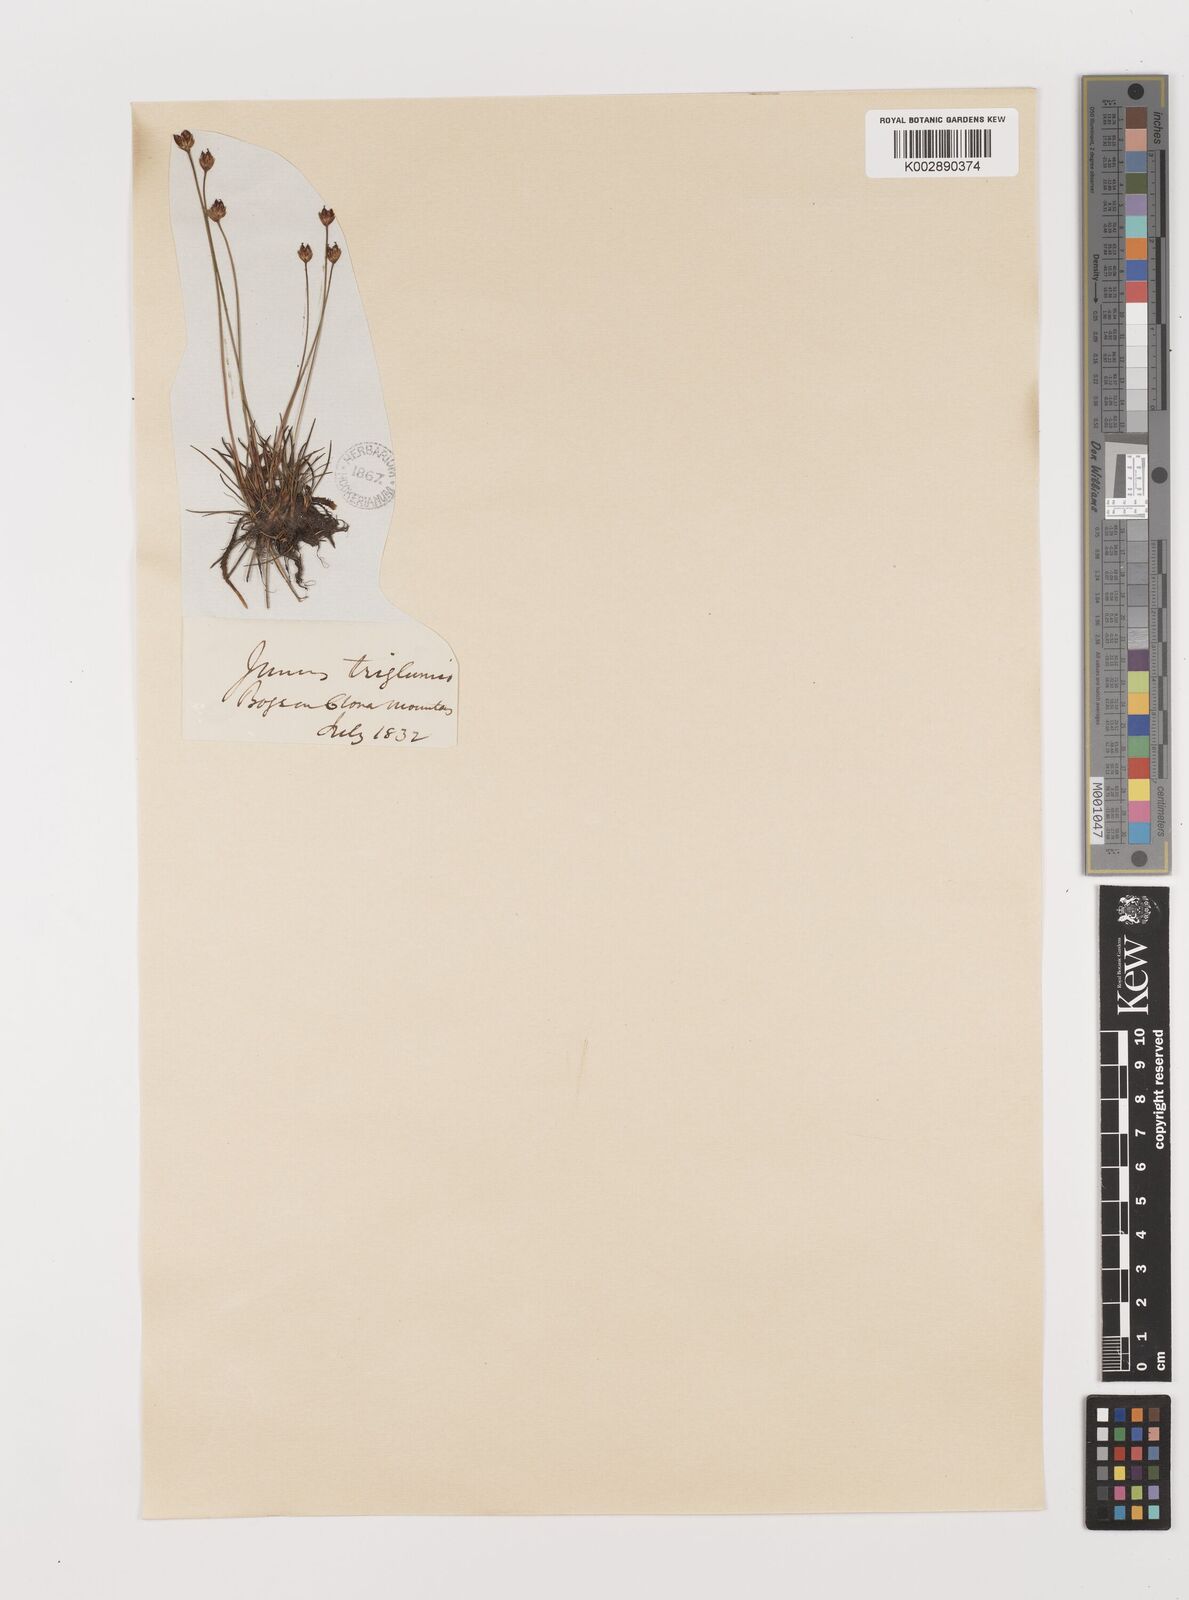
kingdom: Plantae
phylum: Tracheophyta
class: Liliopsida
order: Poales
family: Juncaceae
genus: Juncus
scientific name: Juncus triglumis
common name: Three-flowered rush
